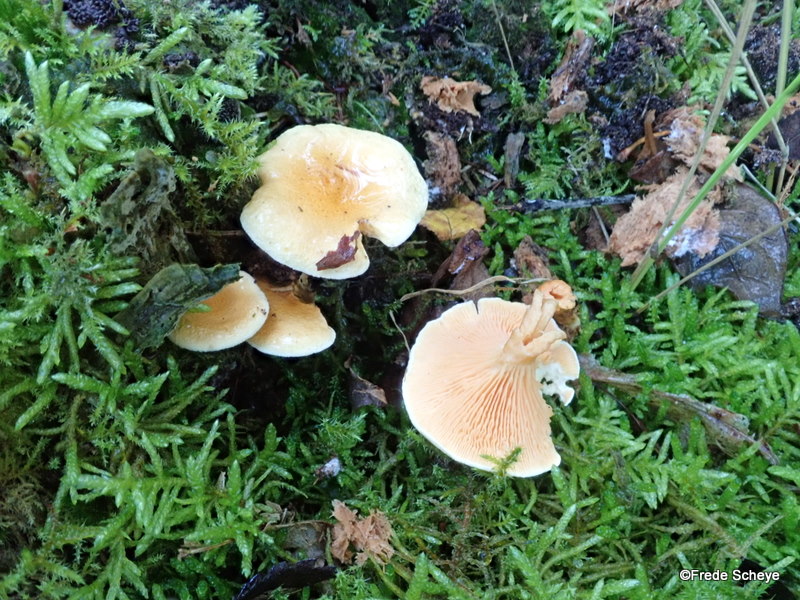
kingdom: Fungi
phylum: Basidiomycota
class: Agaricomycetes
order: Boletales
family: Hygrophoropsidaceae
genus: Hygrophoropsis
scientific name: Hygrophoropsis aurantiaca
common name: almindelig orangekantarel
